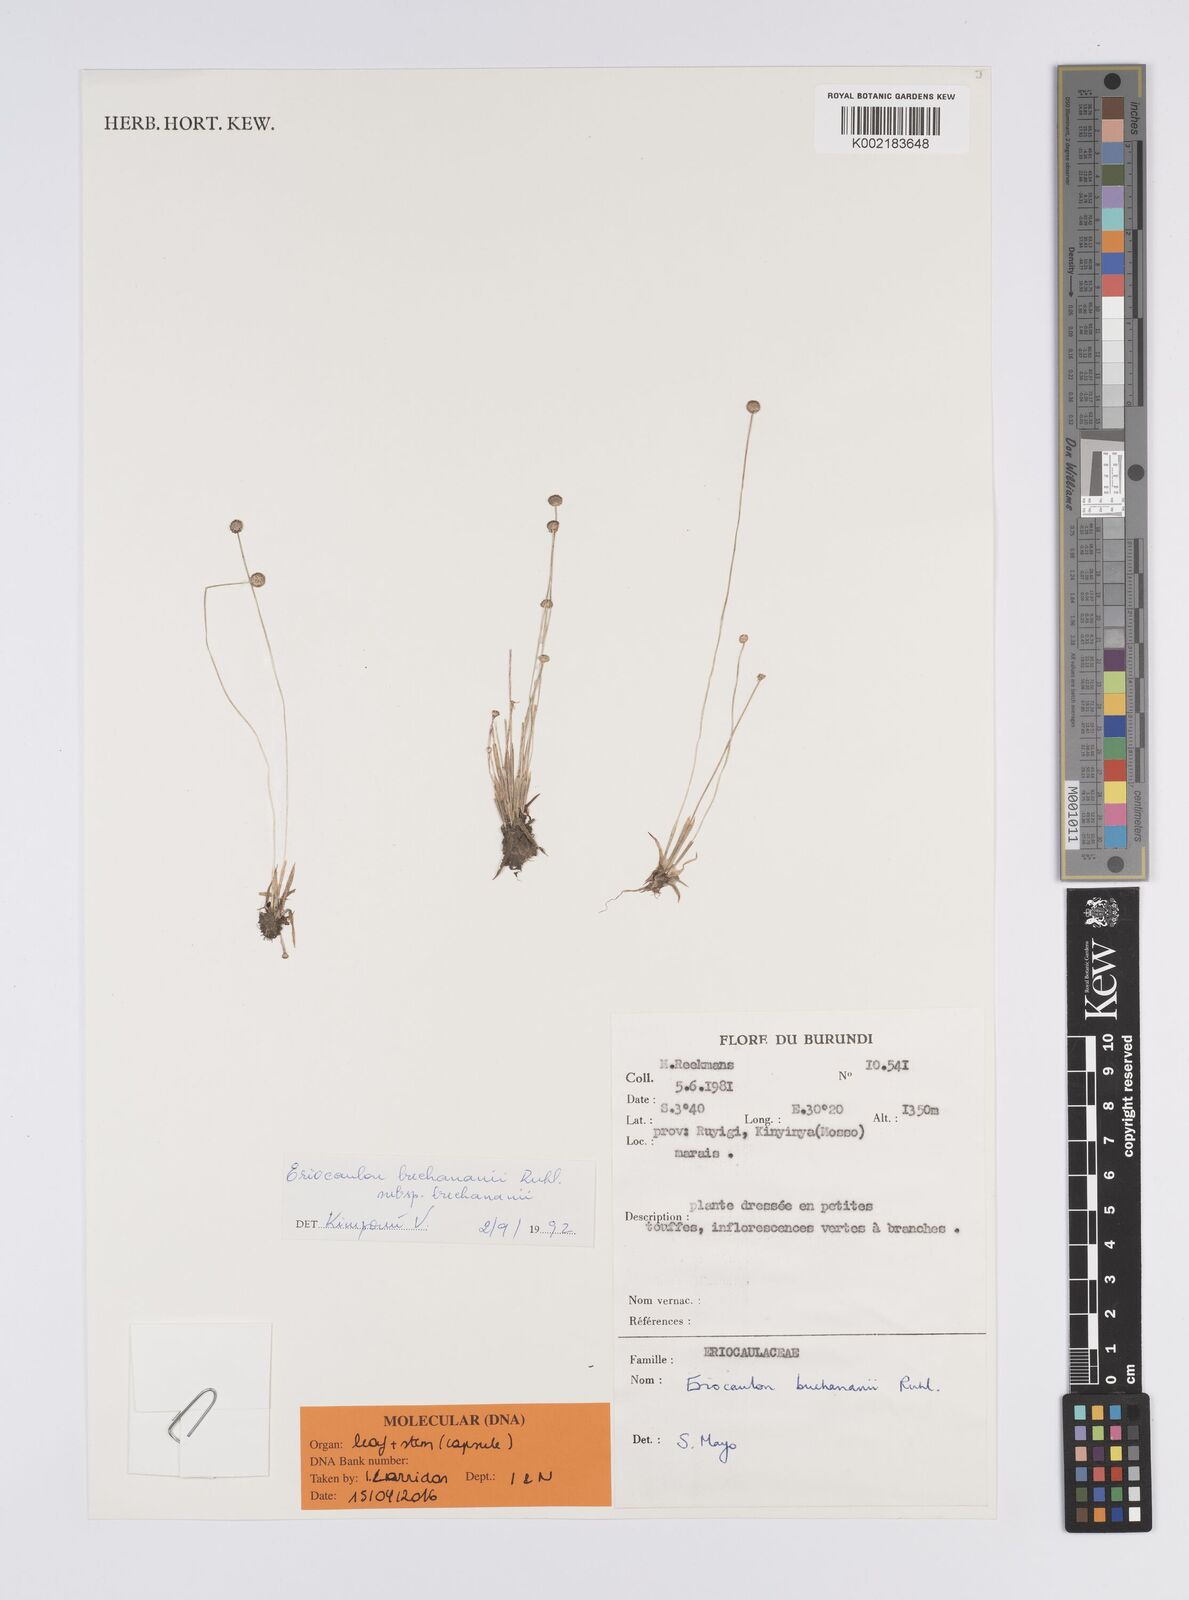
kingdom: Plantae
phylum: Tracheophyta
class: Liliopsida
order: Poales
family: Eriocaulaceae
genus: Eriocaulon
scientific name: Eriocaulon modestum
